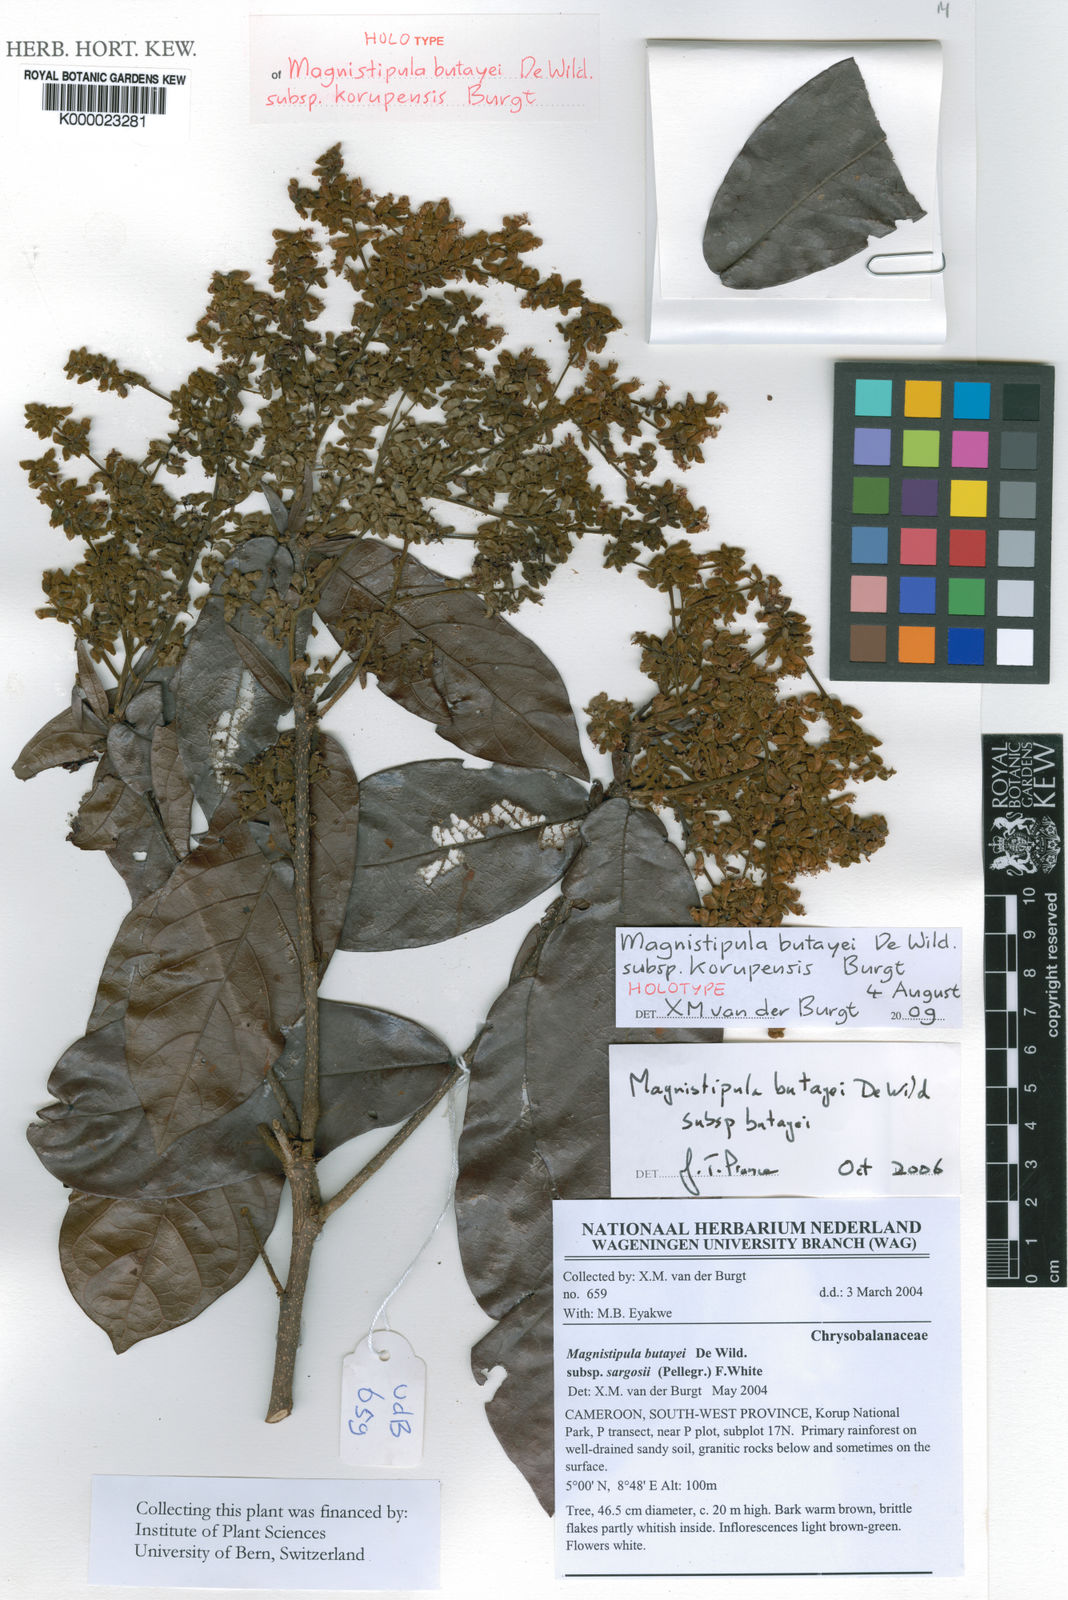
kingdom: Plantae
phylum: Tracheophyta
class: Magnoliopsida
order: Malpighiales
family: Chrysobalanaceae
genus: Magnistipula
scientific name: Magnistipula butayei
